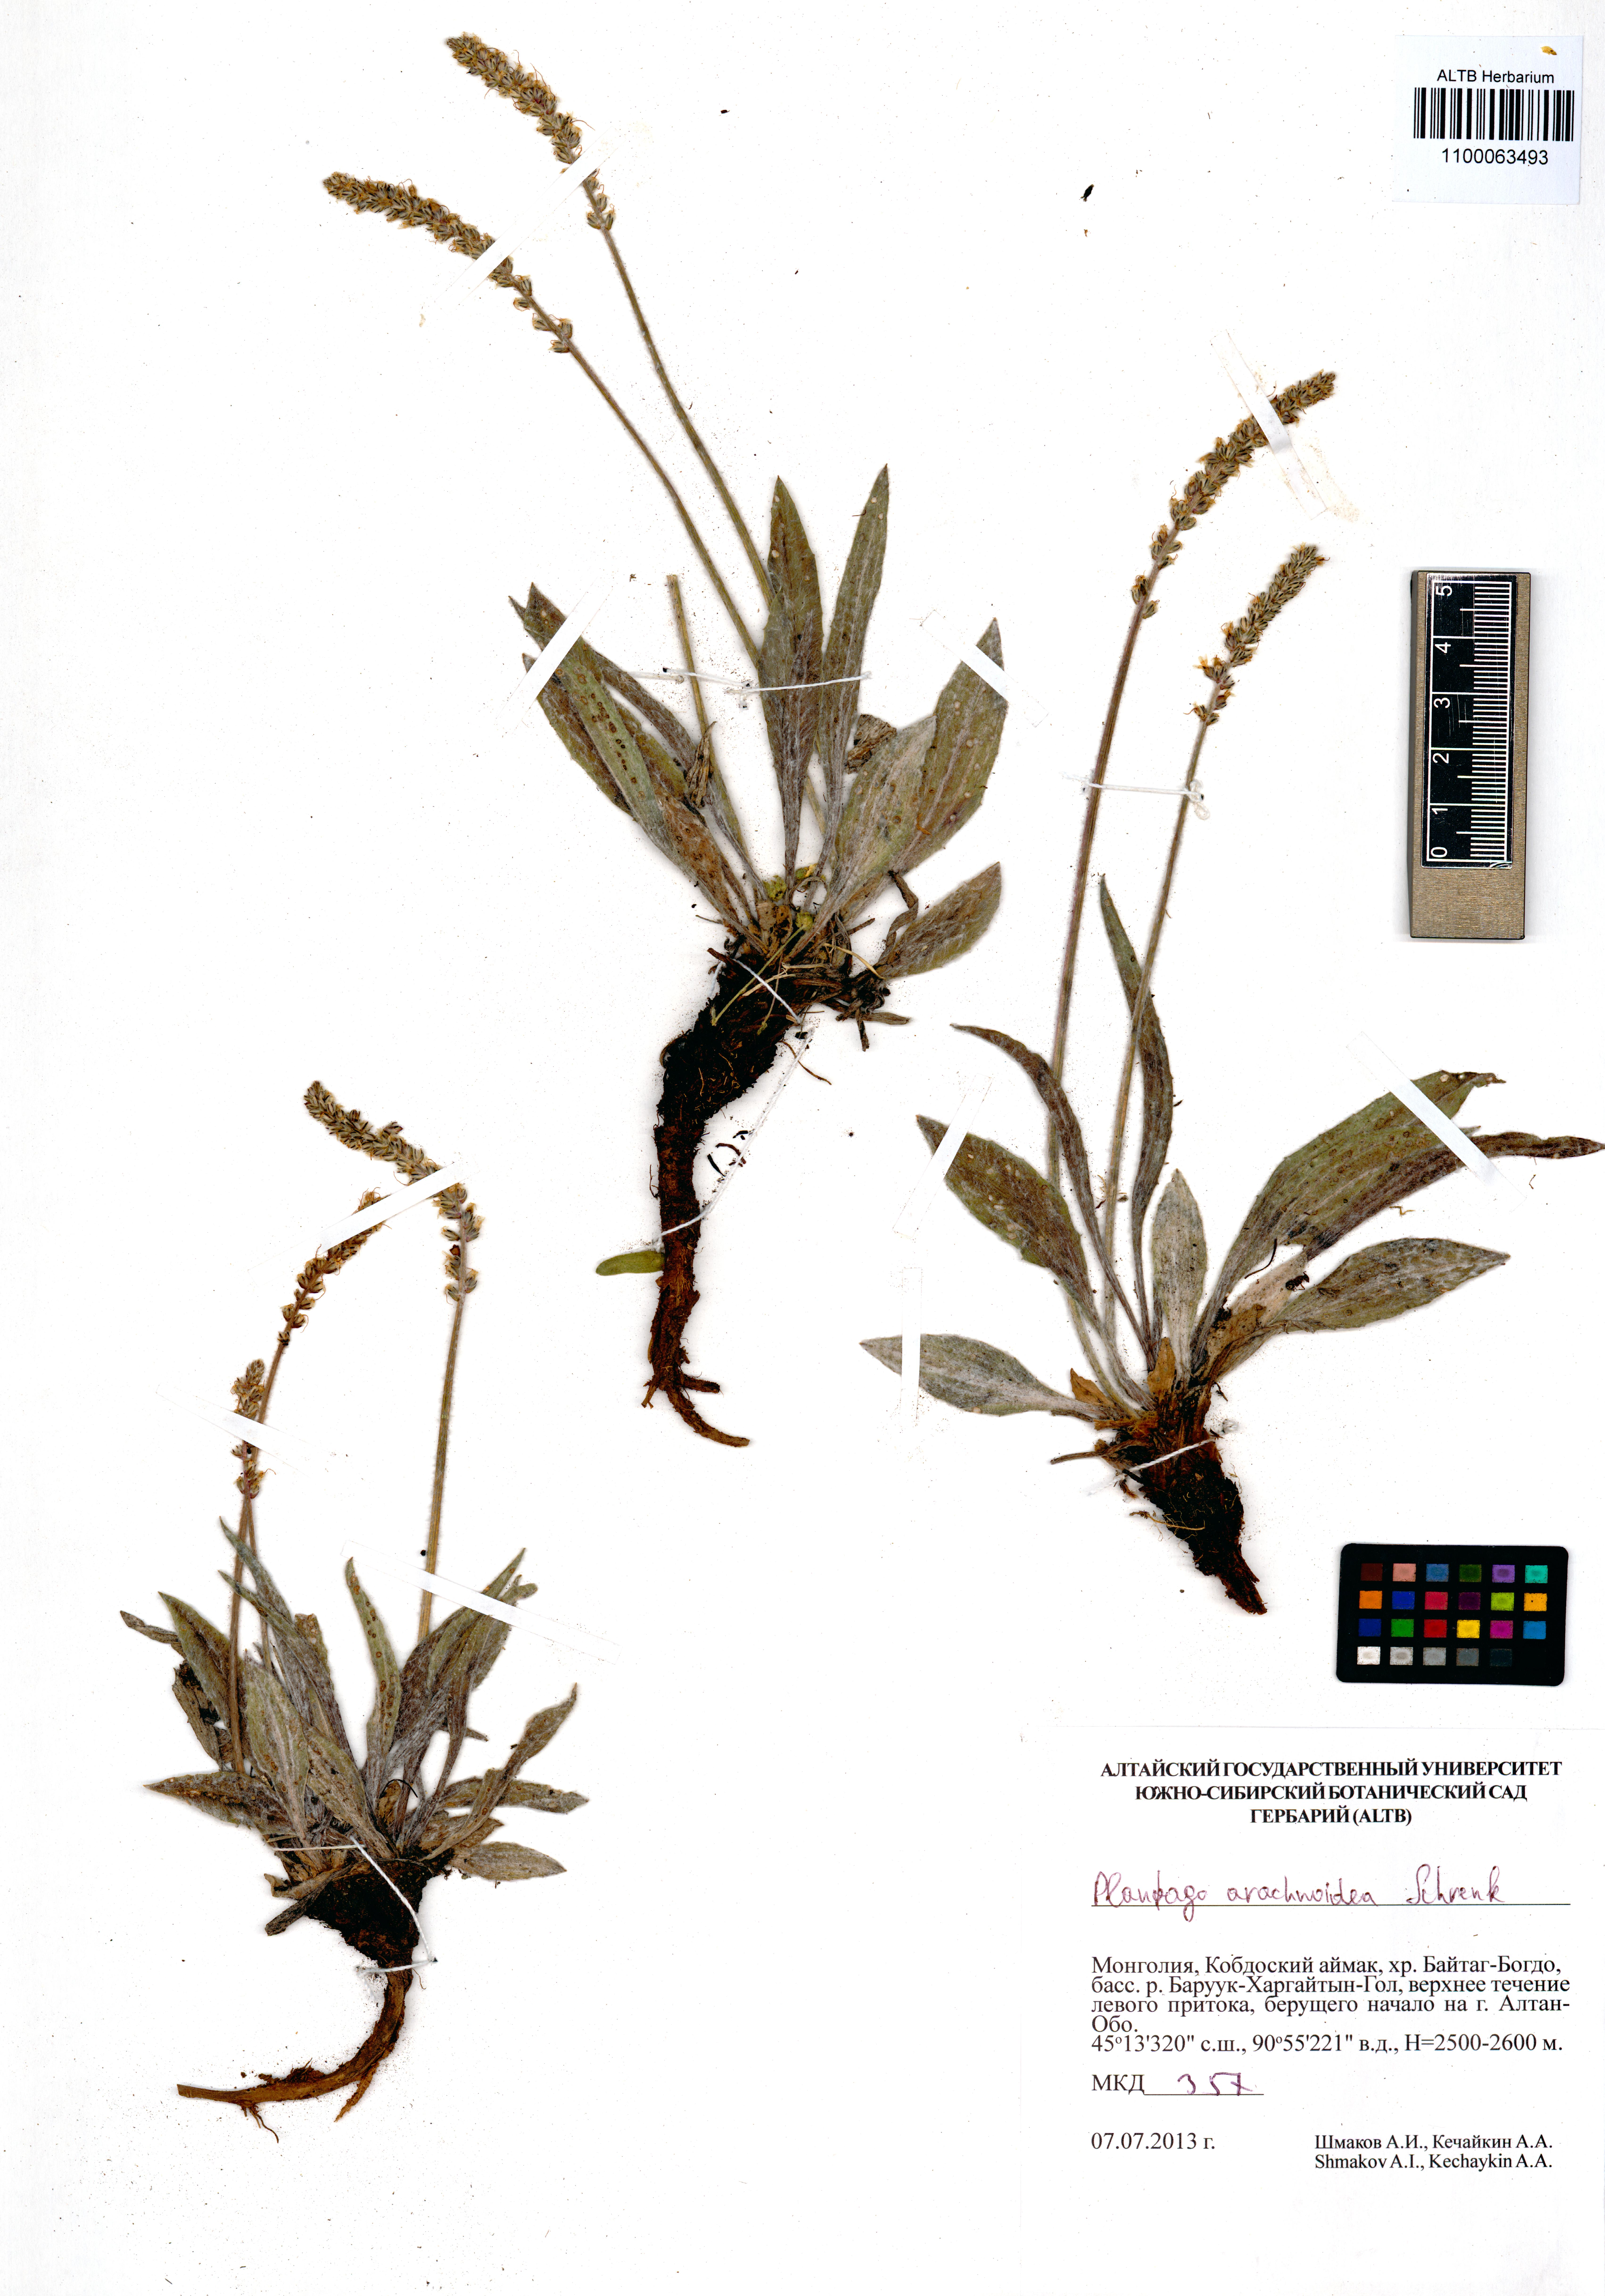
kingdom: Plantae
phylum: Tracheophyta
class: Magnoliopsida
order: Lamiales
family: Plantaginaceae
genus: Plantago
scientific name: Plantago arachnoidea
